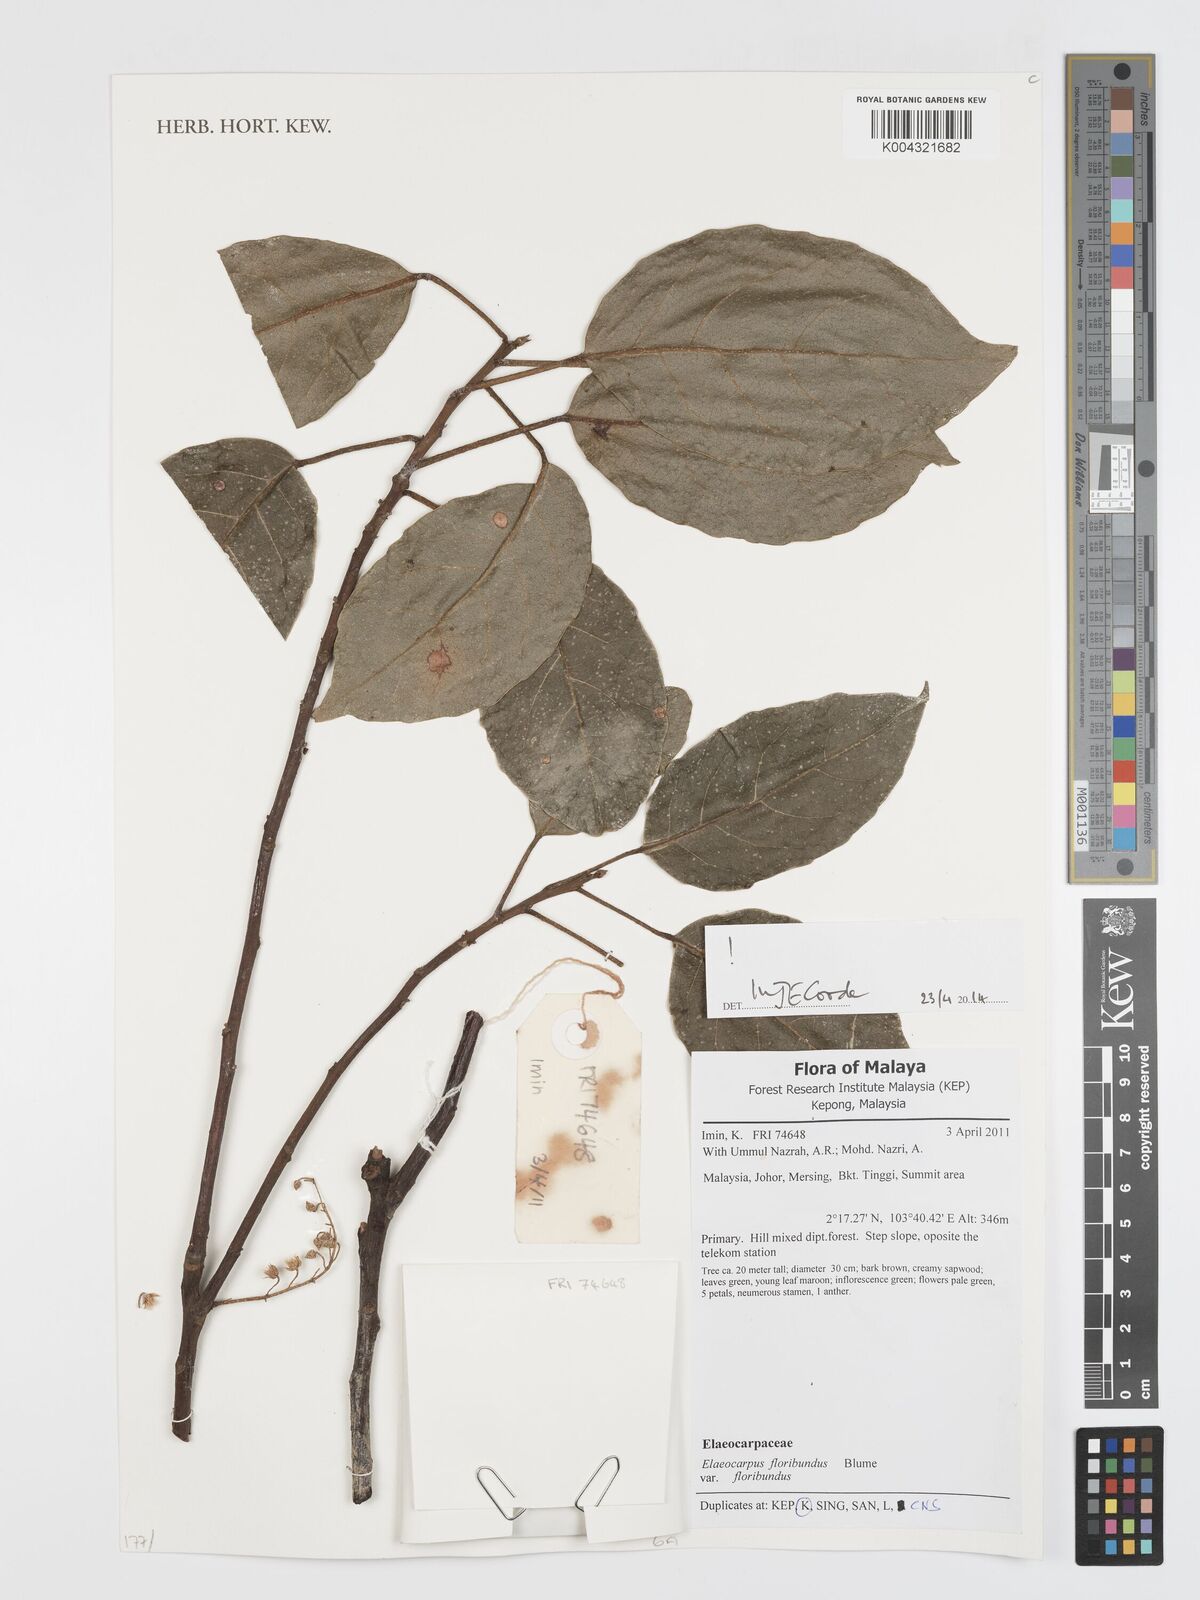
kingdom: Plantae
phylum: Tracheophyta
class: Magnoliopsida
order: Oxalidales
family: Elaeocarpaceae
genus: Elaeocarpus
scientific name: Elaeocarpus floribundus
